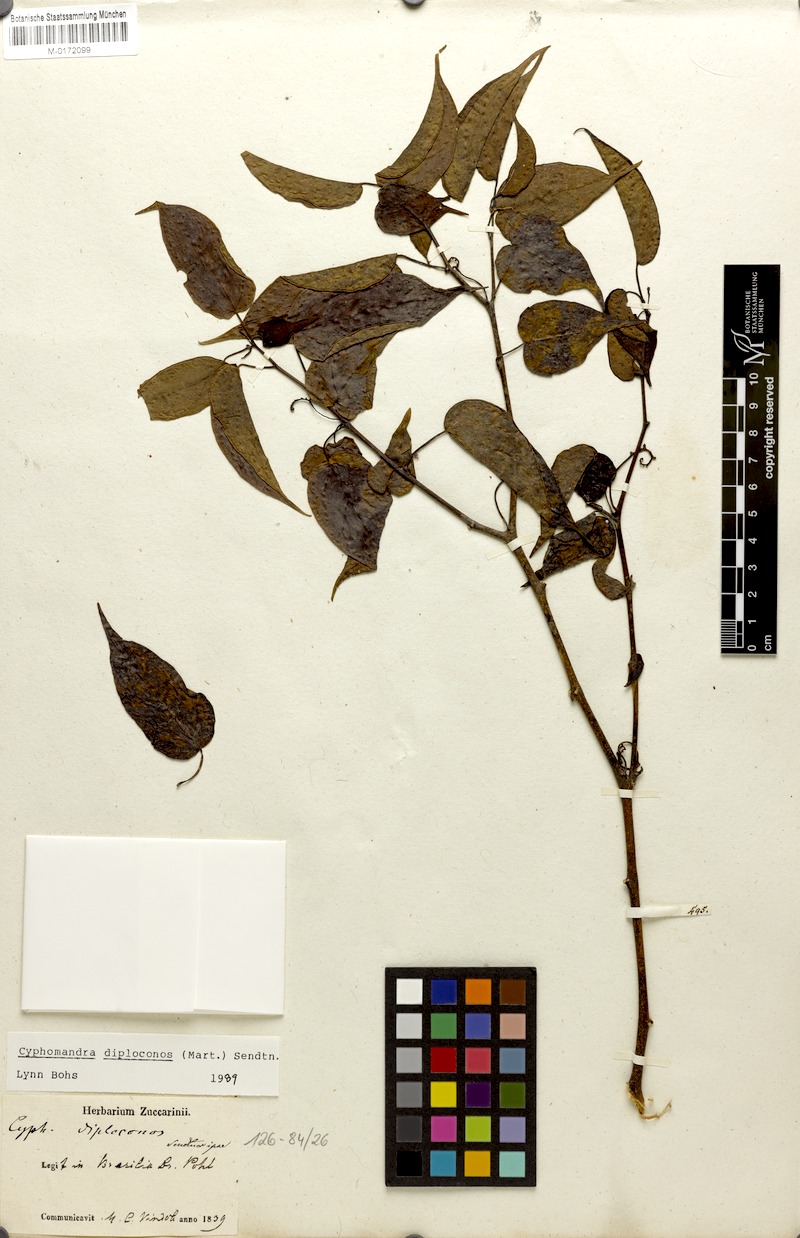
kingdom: Plantae
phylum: Tracheophyta
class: Magnoliopsida
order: Solanales
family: Solanaceae
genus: Solanum
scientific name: Solanum diploconos
